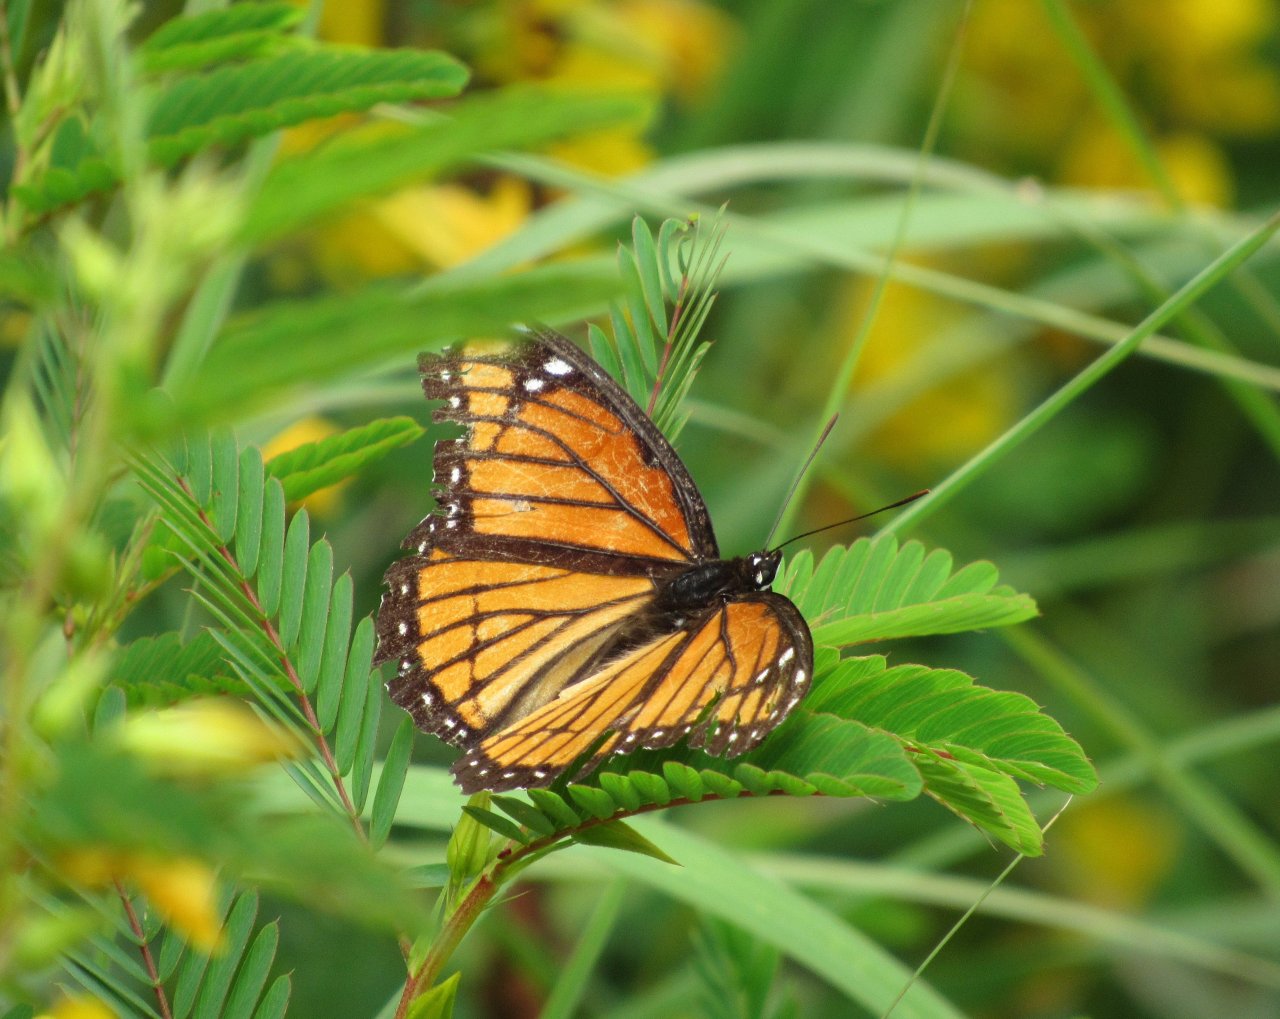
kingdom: Animalia
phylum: Arthropoda
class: Insecta
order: Lepidoptera
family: Nymphalidae
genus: Limenitis
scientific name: Limenitis archippus
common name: Viceroy
